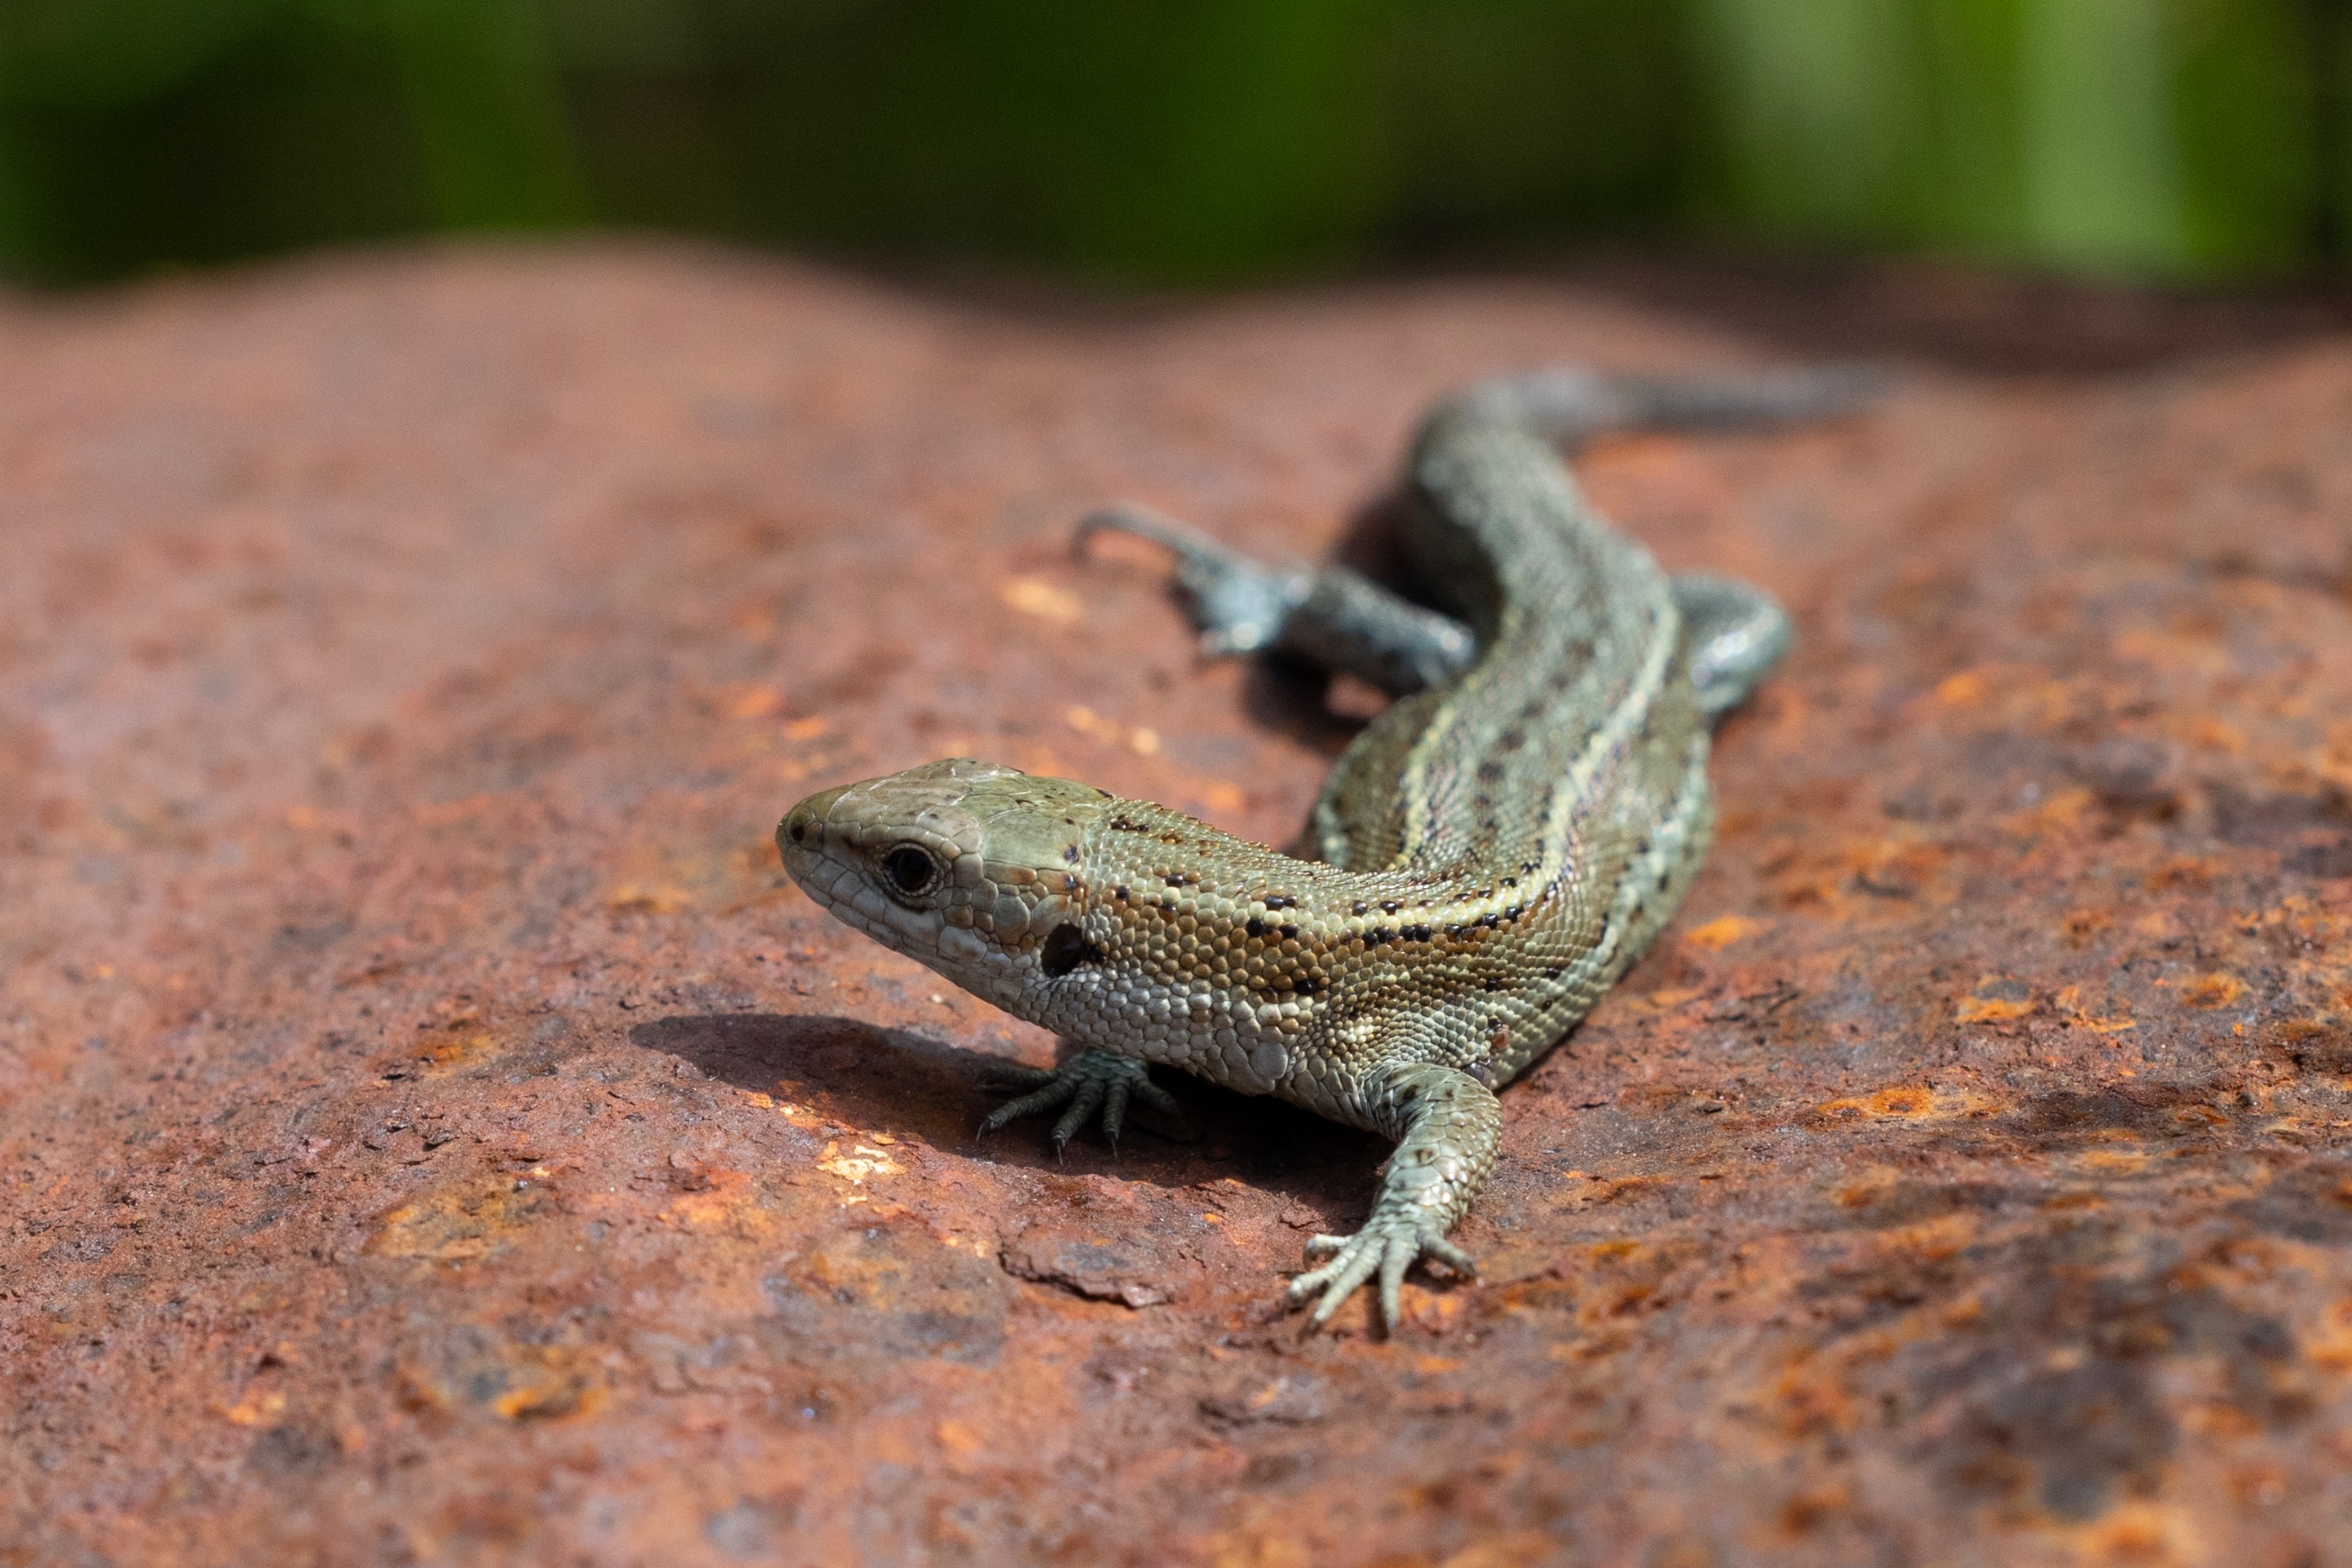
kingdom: Animalia
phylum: Chordata
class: Squamata
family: Lacertidae
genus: Zootoca
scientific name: Zootoca vivipara
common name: Skovfirben
